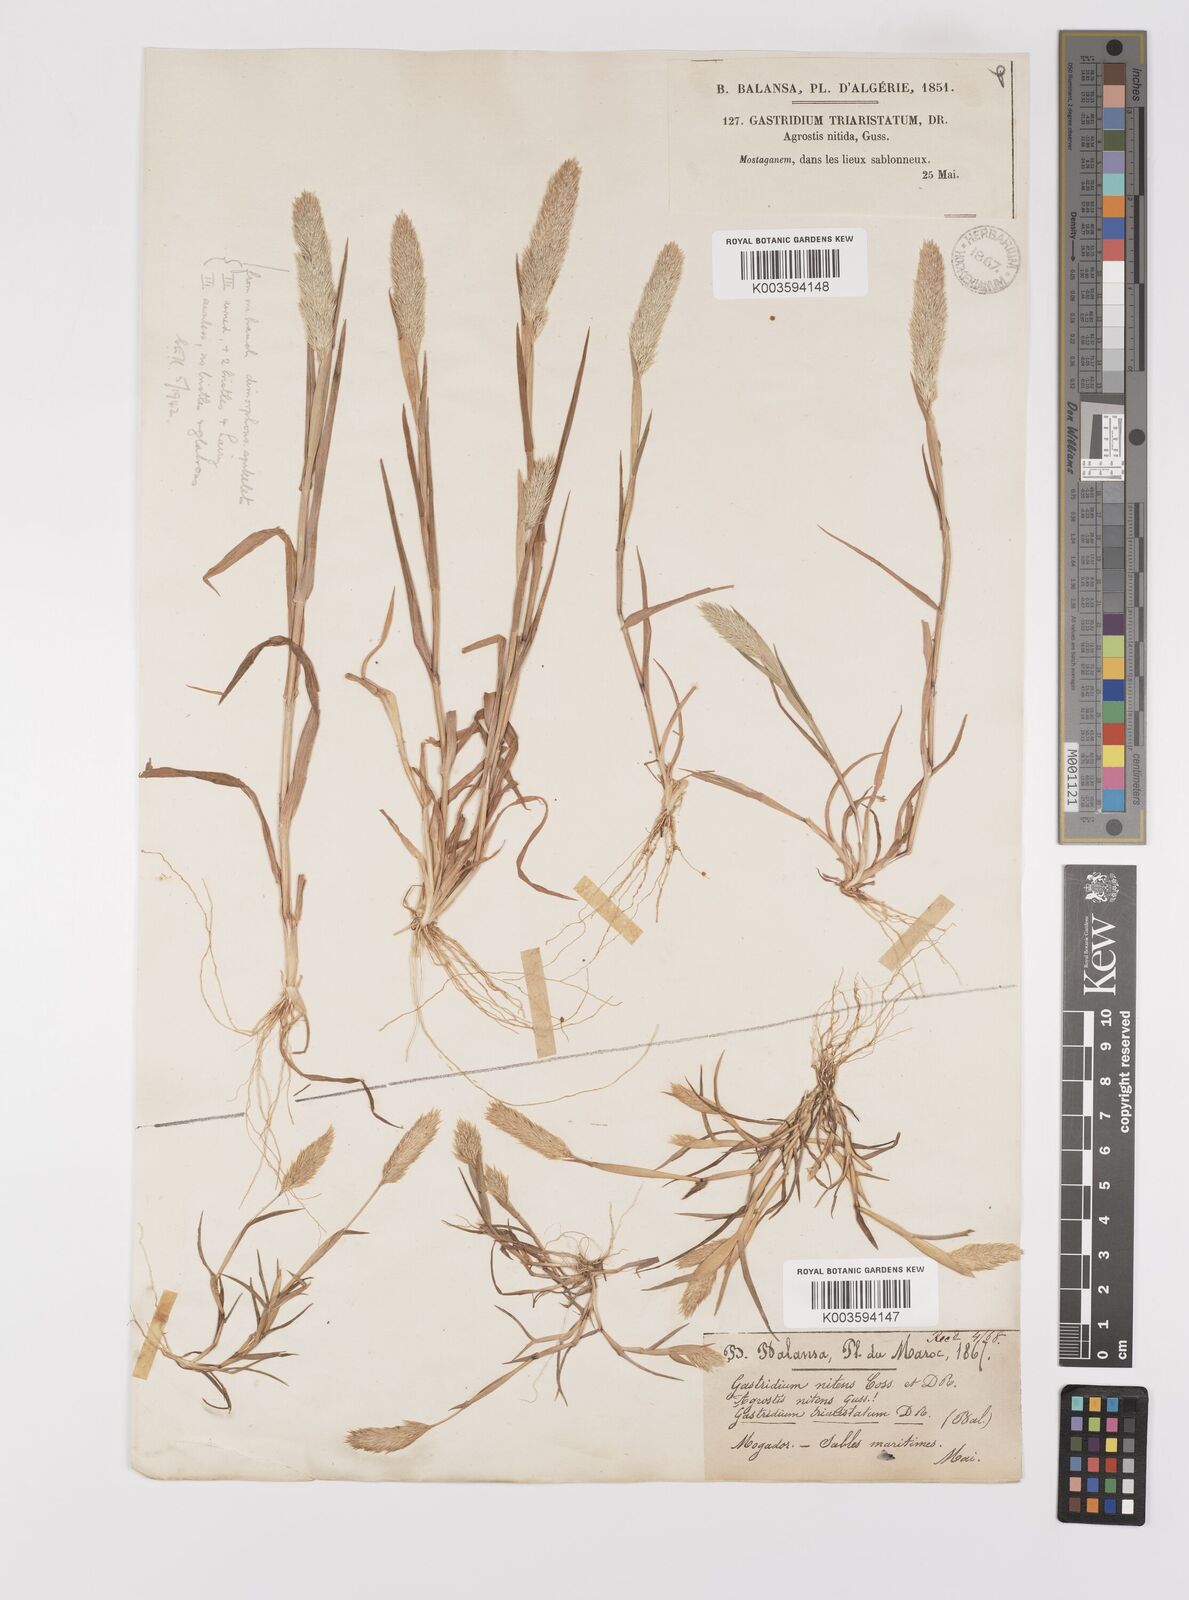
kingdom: Plantae
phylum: Tracheophyta
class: Liliopsida
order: Poales
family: Poaceae
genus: Triplachne
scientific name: Triplachne nitens
